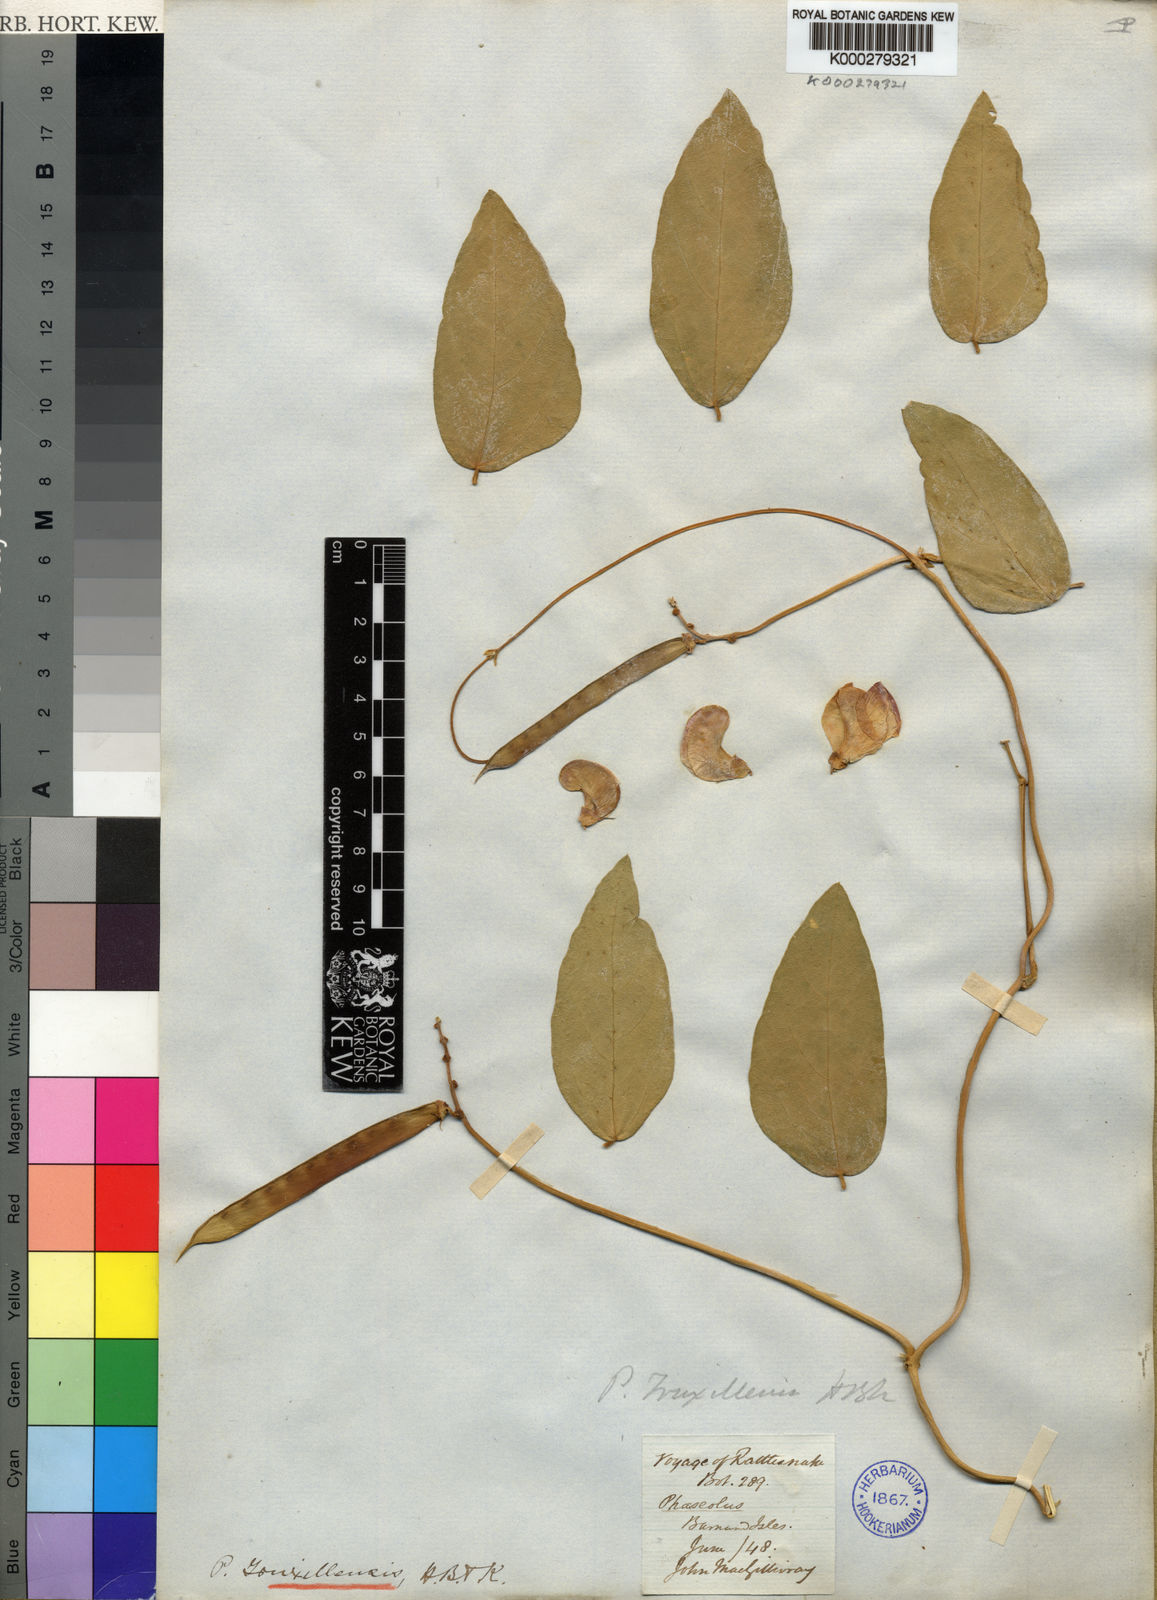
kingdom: Plantae
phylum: Tracheophyta
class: Magnoliopsida
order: Fabales
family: Fabaceae
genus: Vigna
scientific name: Vigna truxillensis
